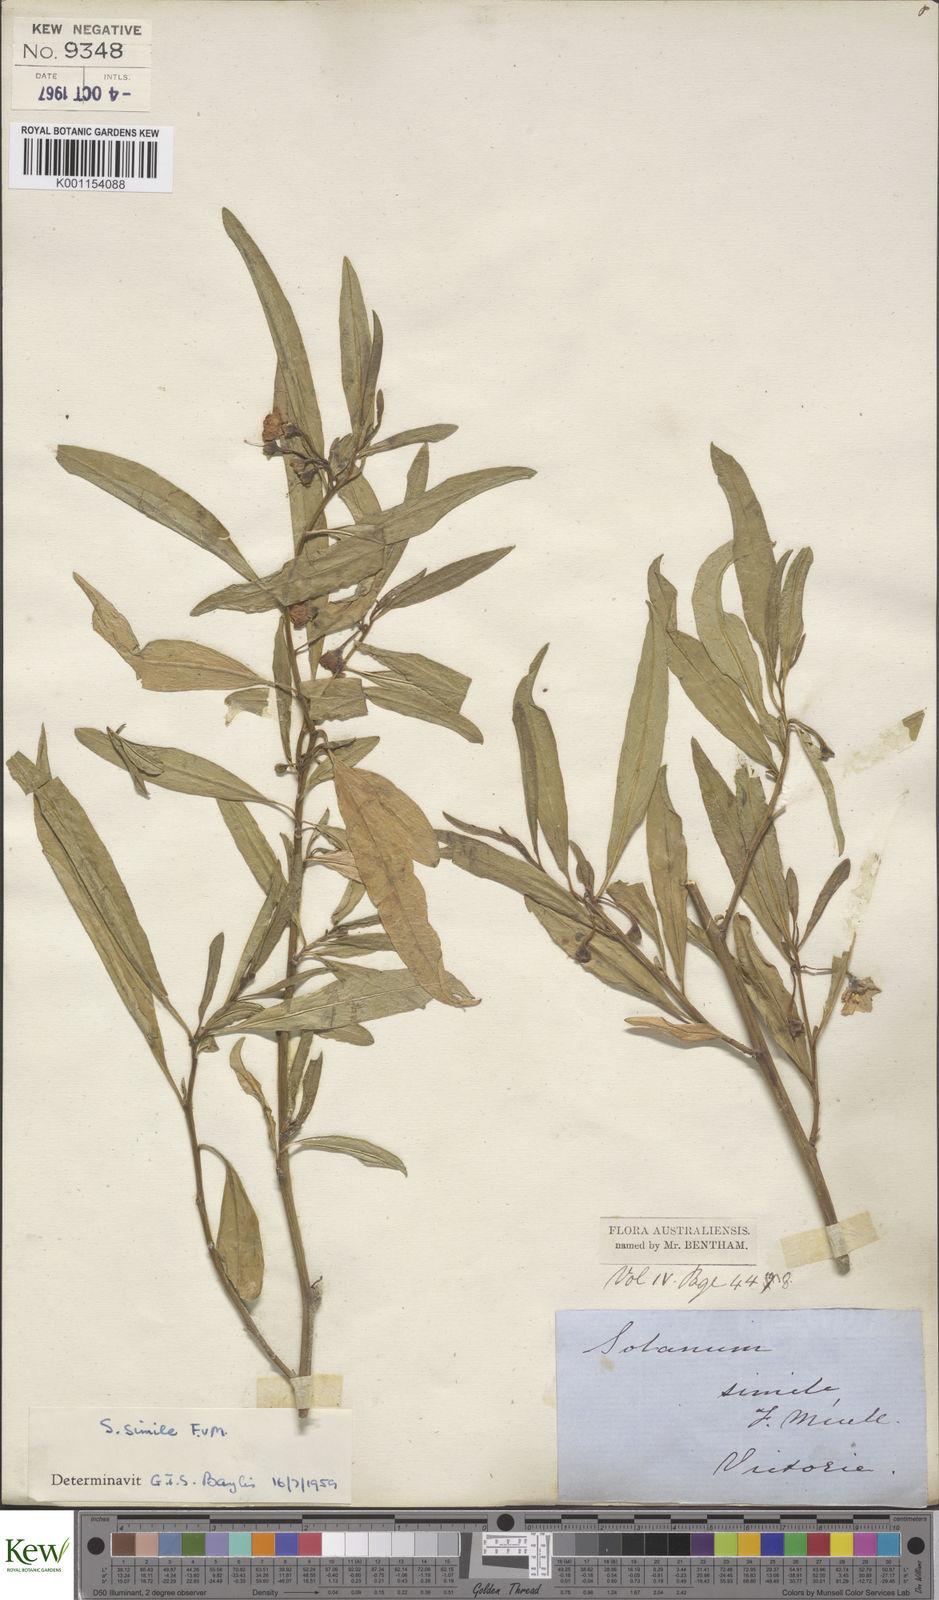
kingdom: Plantae
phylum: Tracheophyta
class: Magnoliopsida
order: Solanales
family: Solanaceae
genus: Solanum
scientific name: Solanum simile
